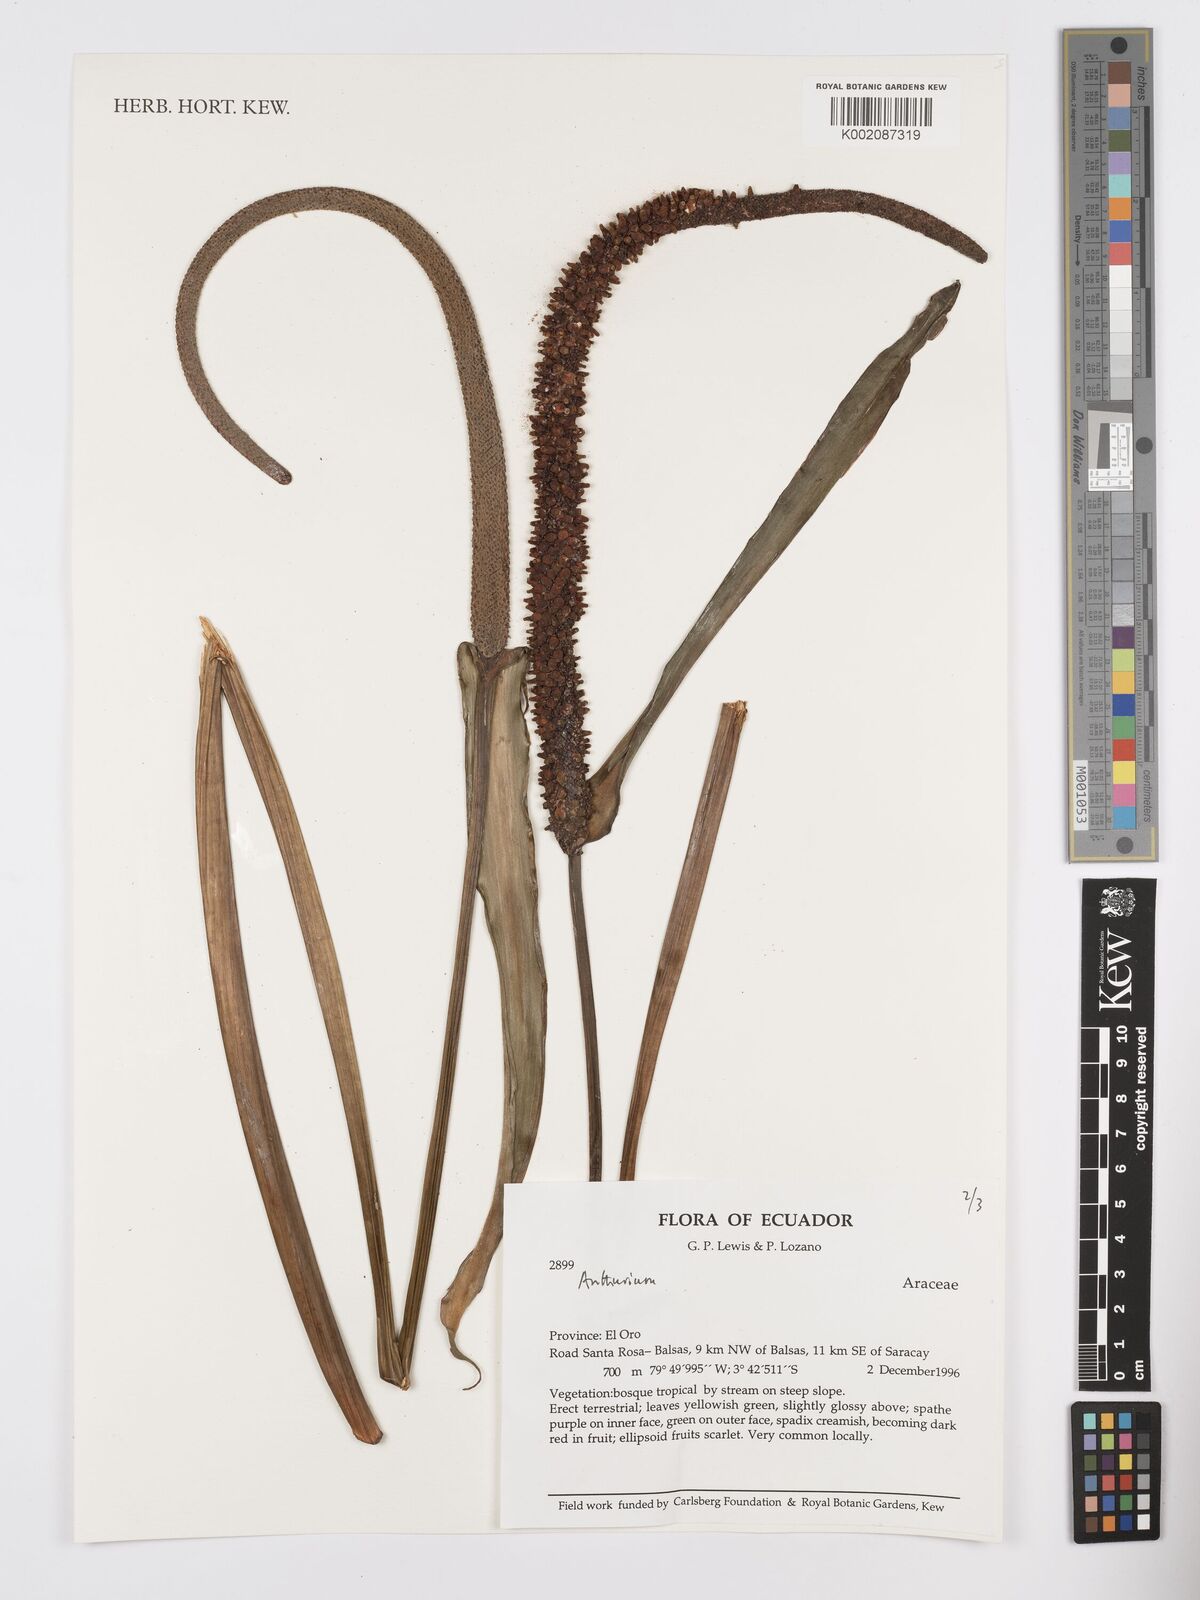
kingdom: Plantae
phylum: Tracheophyta
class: Liliopsida
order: Alismatales
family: Araceae
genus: Anthurium
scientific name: Anthurium
